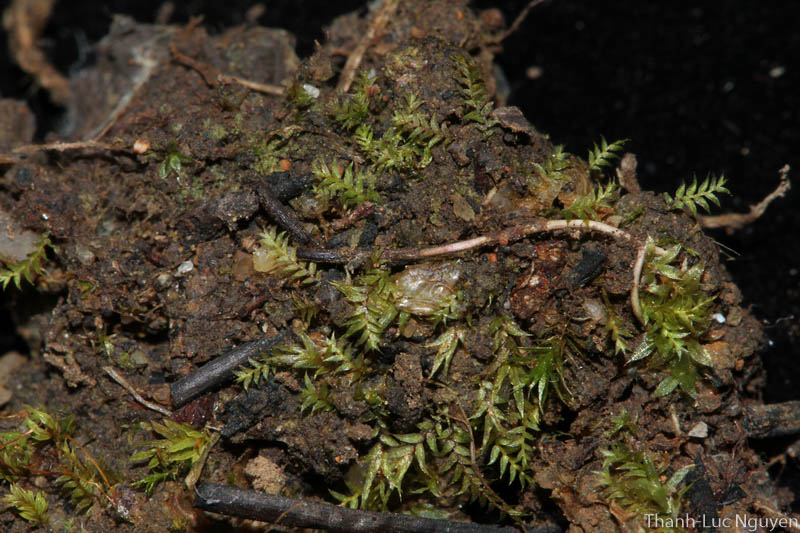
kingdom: Plantae
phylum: Bryophyta
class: Bryopsida
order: Dicranales
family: Fissidentaceae
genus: Fissidens
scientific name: Fissidens
